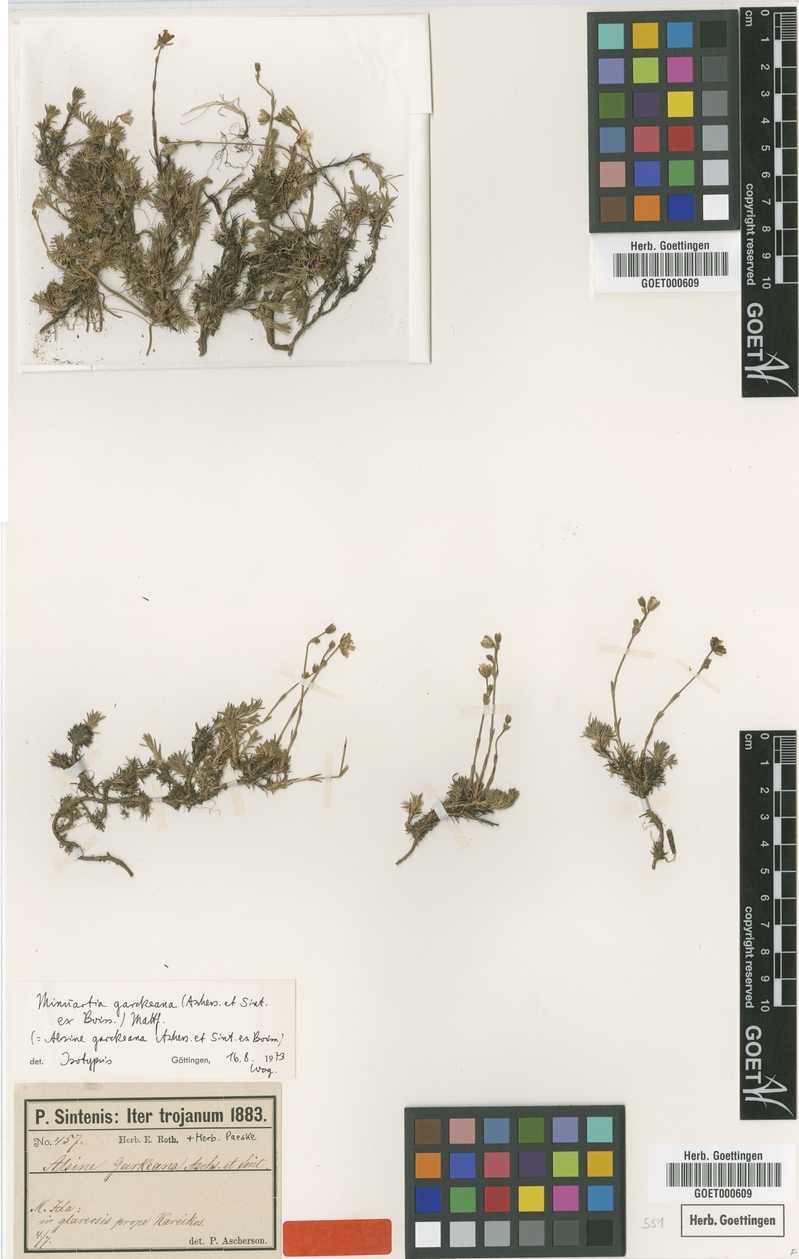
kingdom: Plantae
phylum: Tracheophyta
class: Magnoliopsida
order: Caryophyllales
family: Caryophyllaceae
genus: Cherleria
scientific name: Cherleria garckeana
